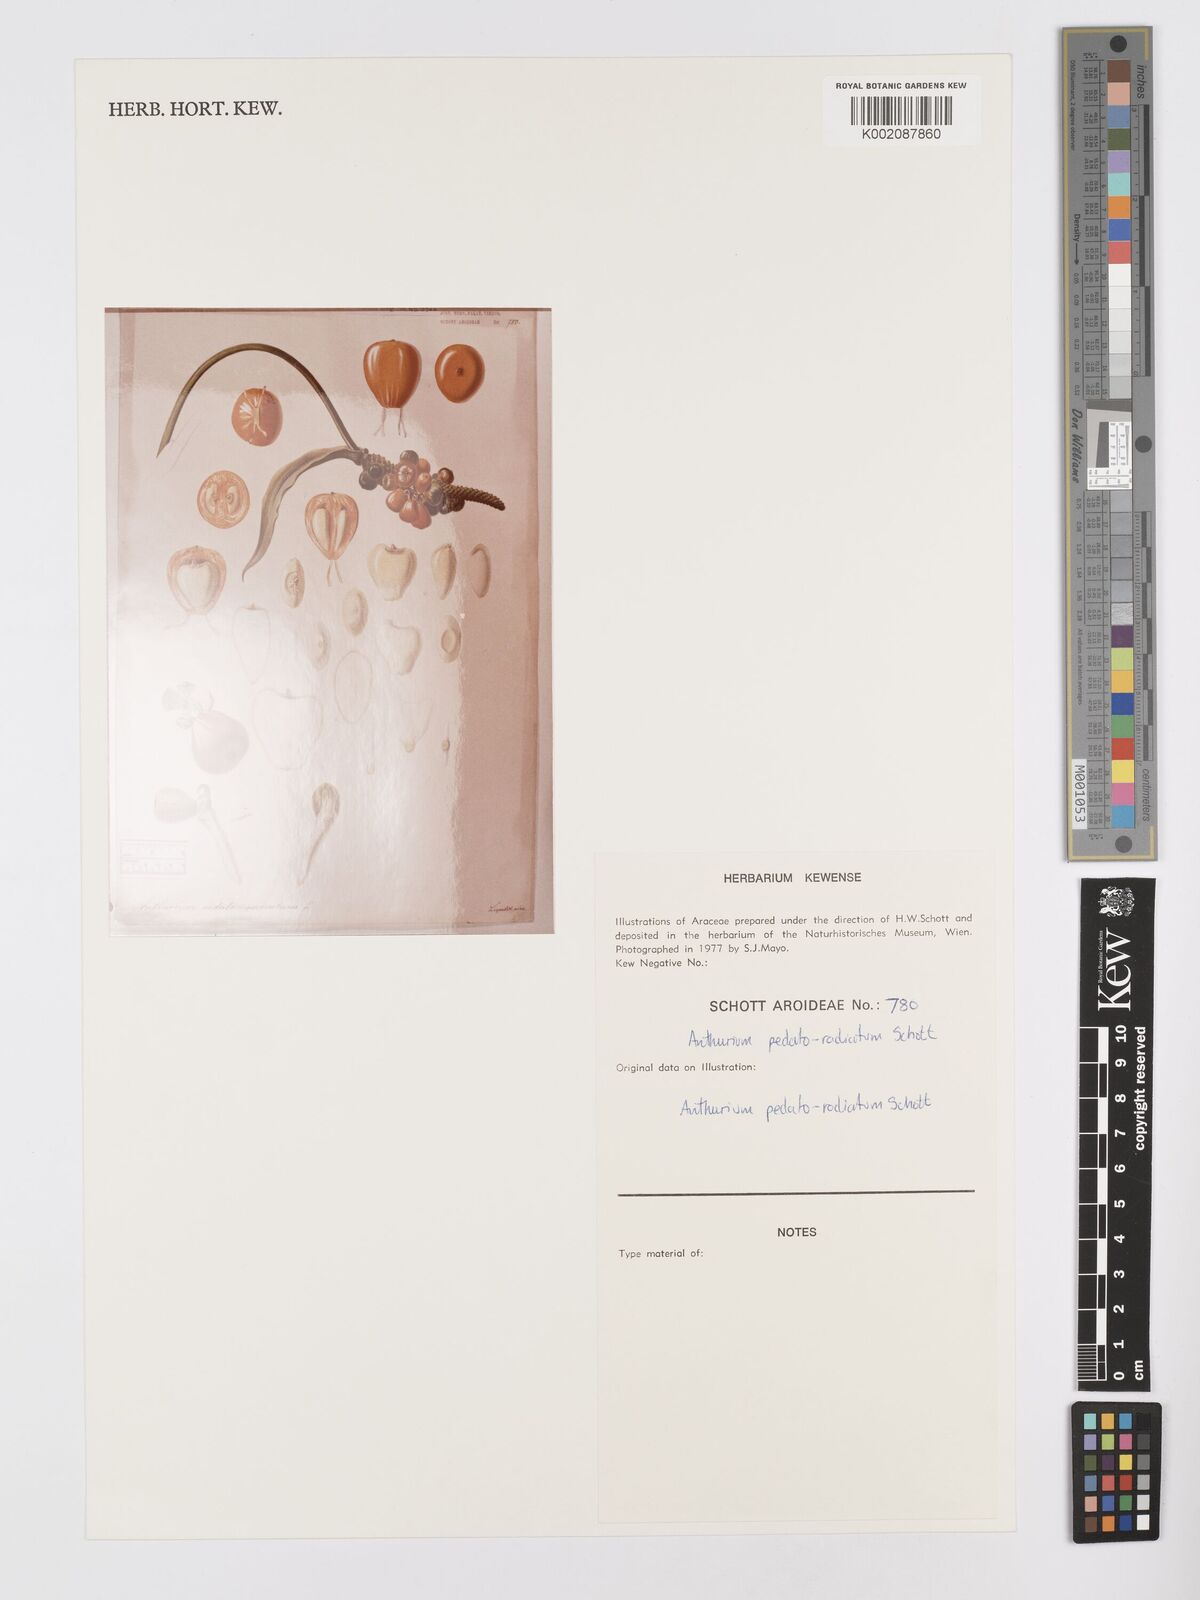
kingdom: Plantae
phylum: Tracheophyta
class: Liliopsida
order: Alismatales
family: Araceae
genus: Anthurium
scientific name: Anthurium pedatoradiatum
